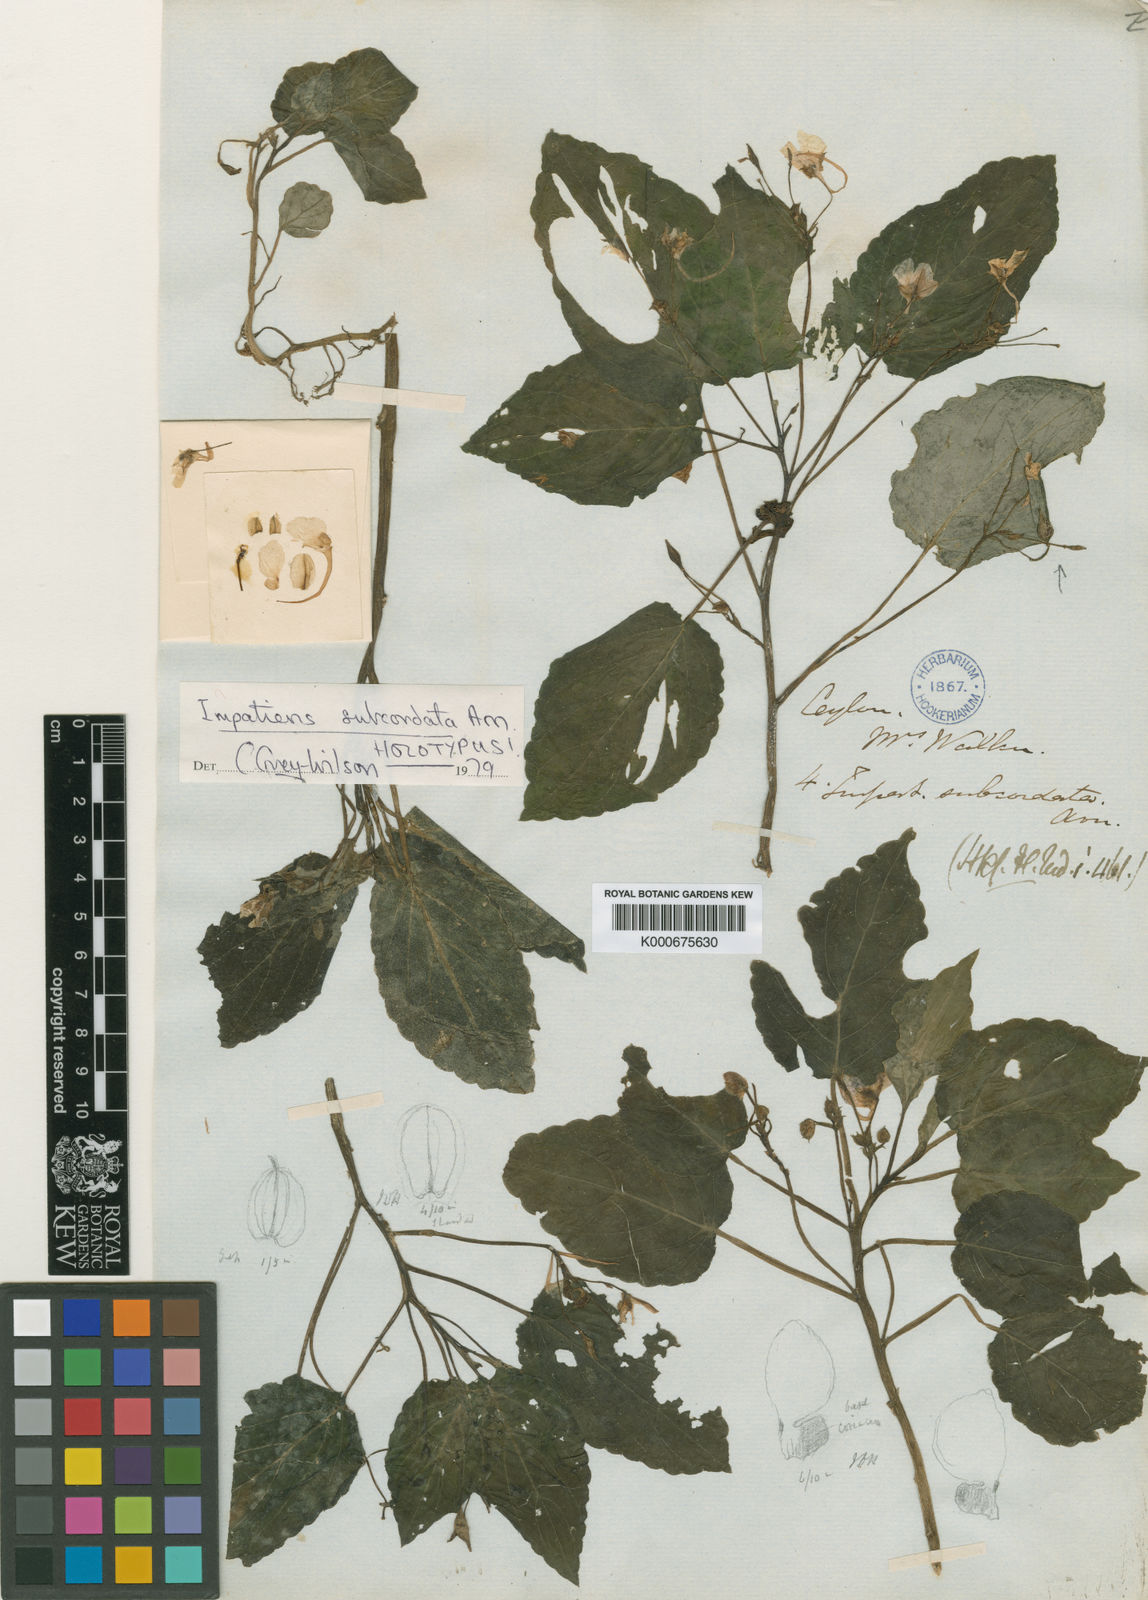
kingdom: Plantae
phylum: Tracheophyta
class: Magnoliopsida
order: Ericales
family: Balsaminaceae
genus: Impatiens
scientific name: Impatiens subcordata
